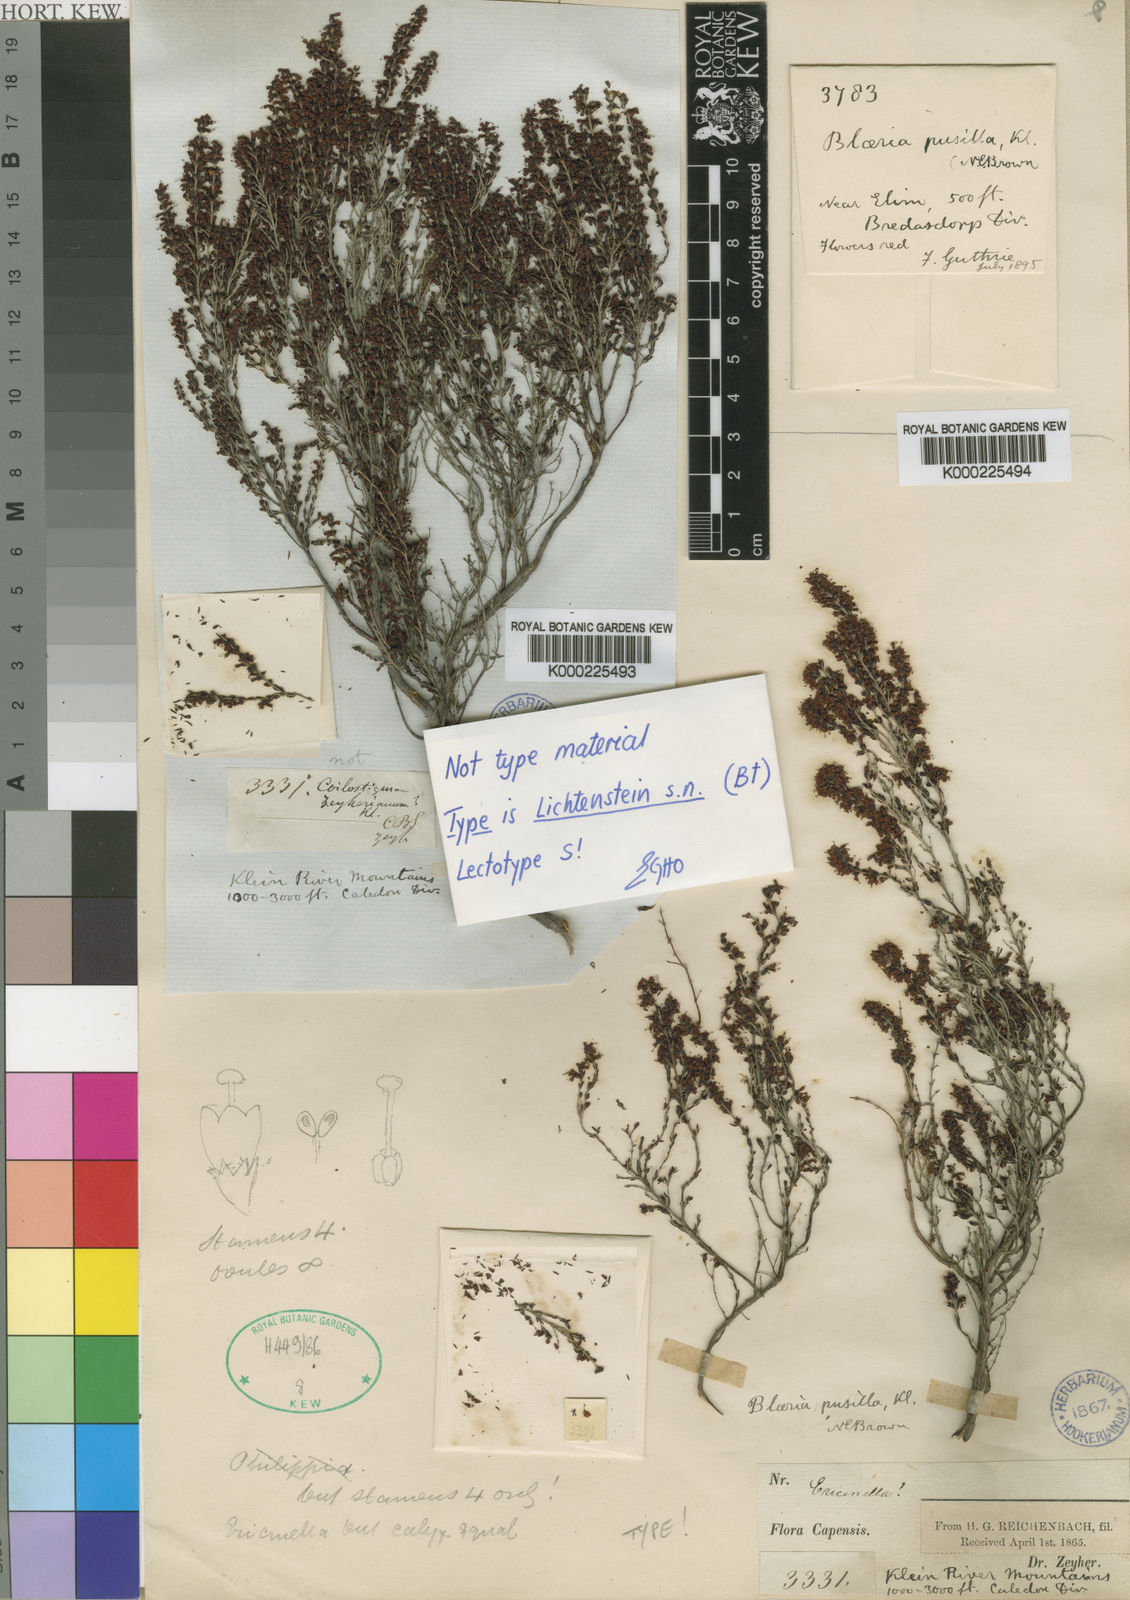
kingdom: Plantae
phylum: Tracheophyta
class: Magnoliopsida
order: Ericales
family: Ericaceae
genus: Erica
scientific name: Erica klotzschii
